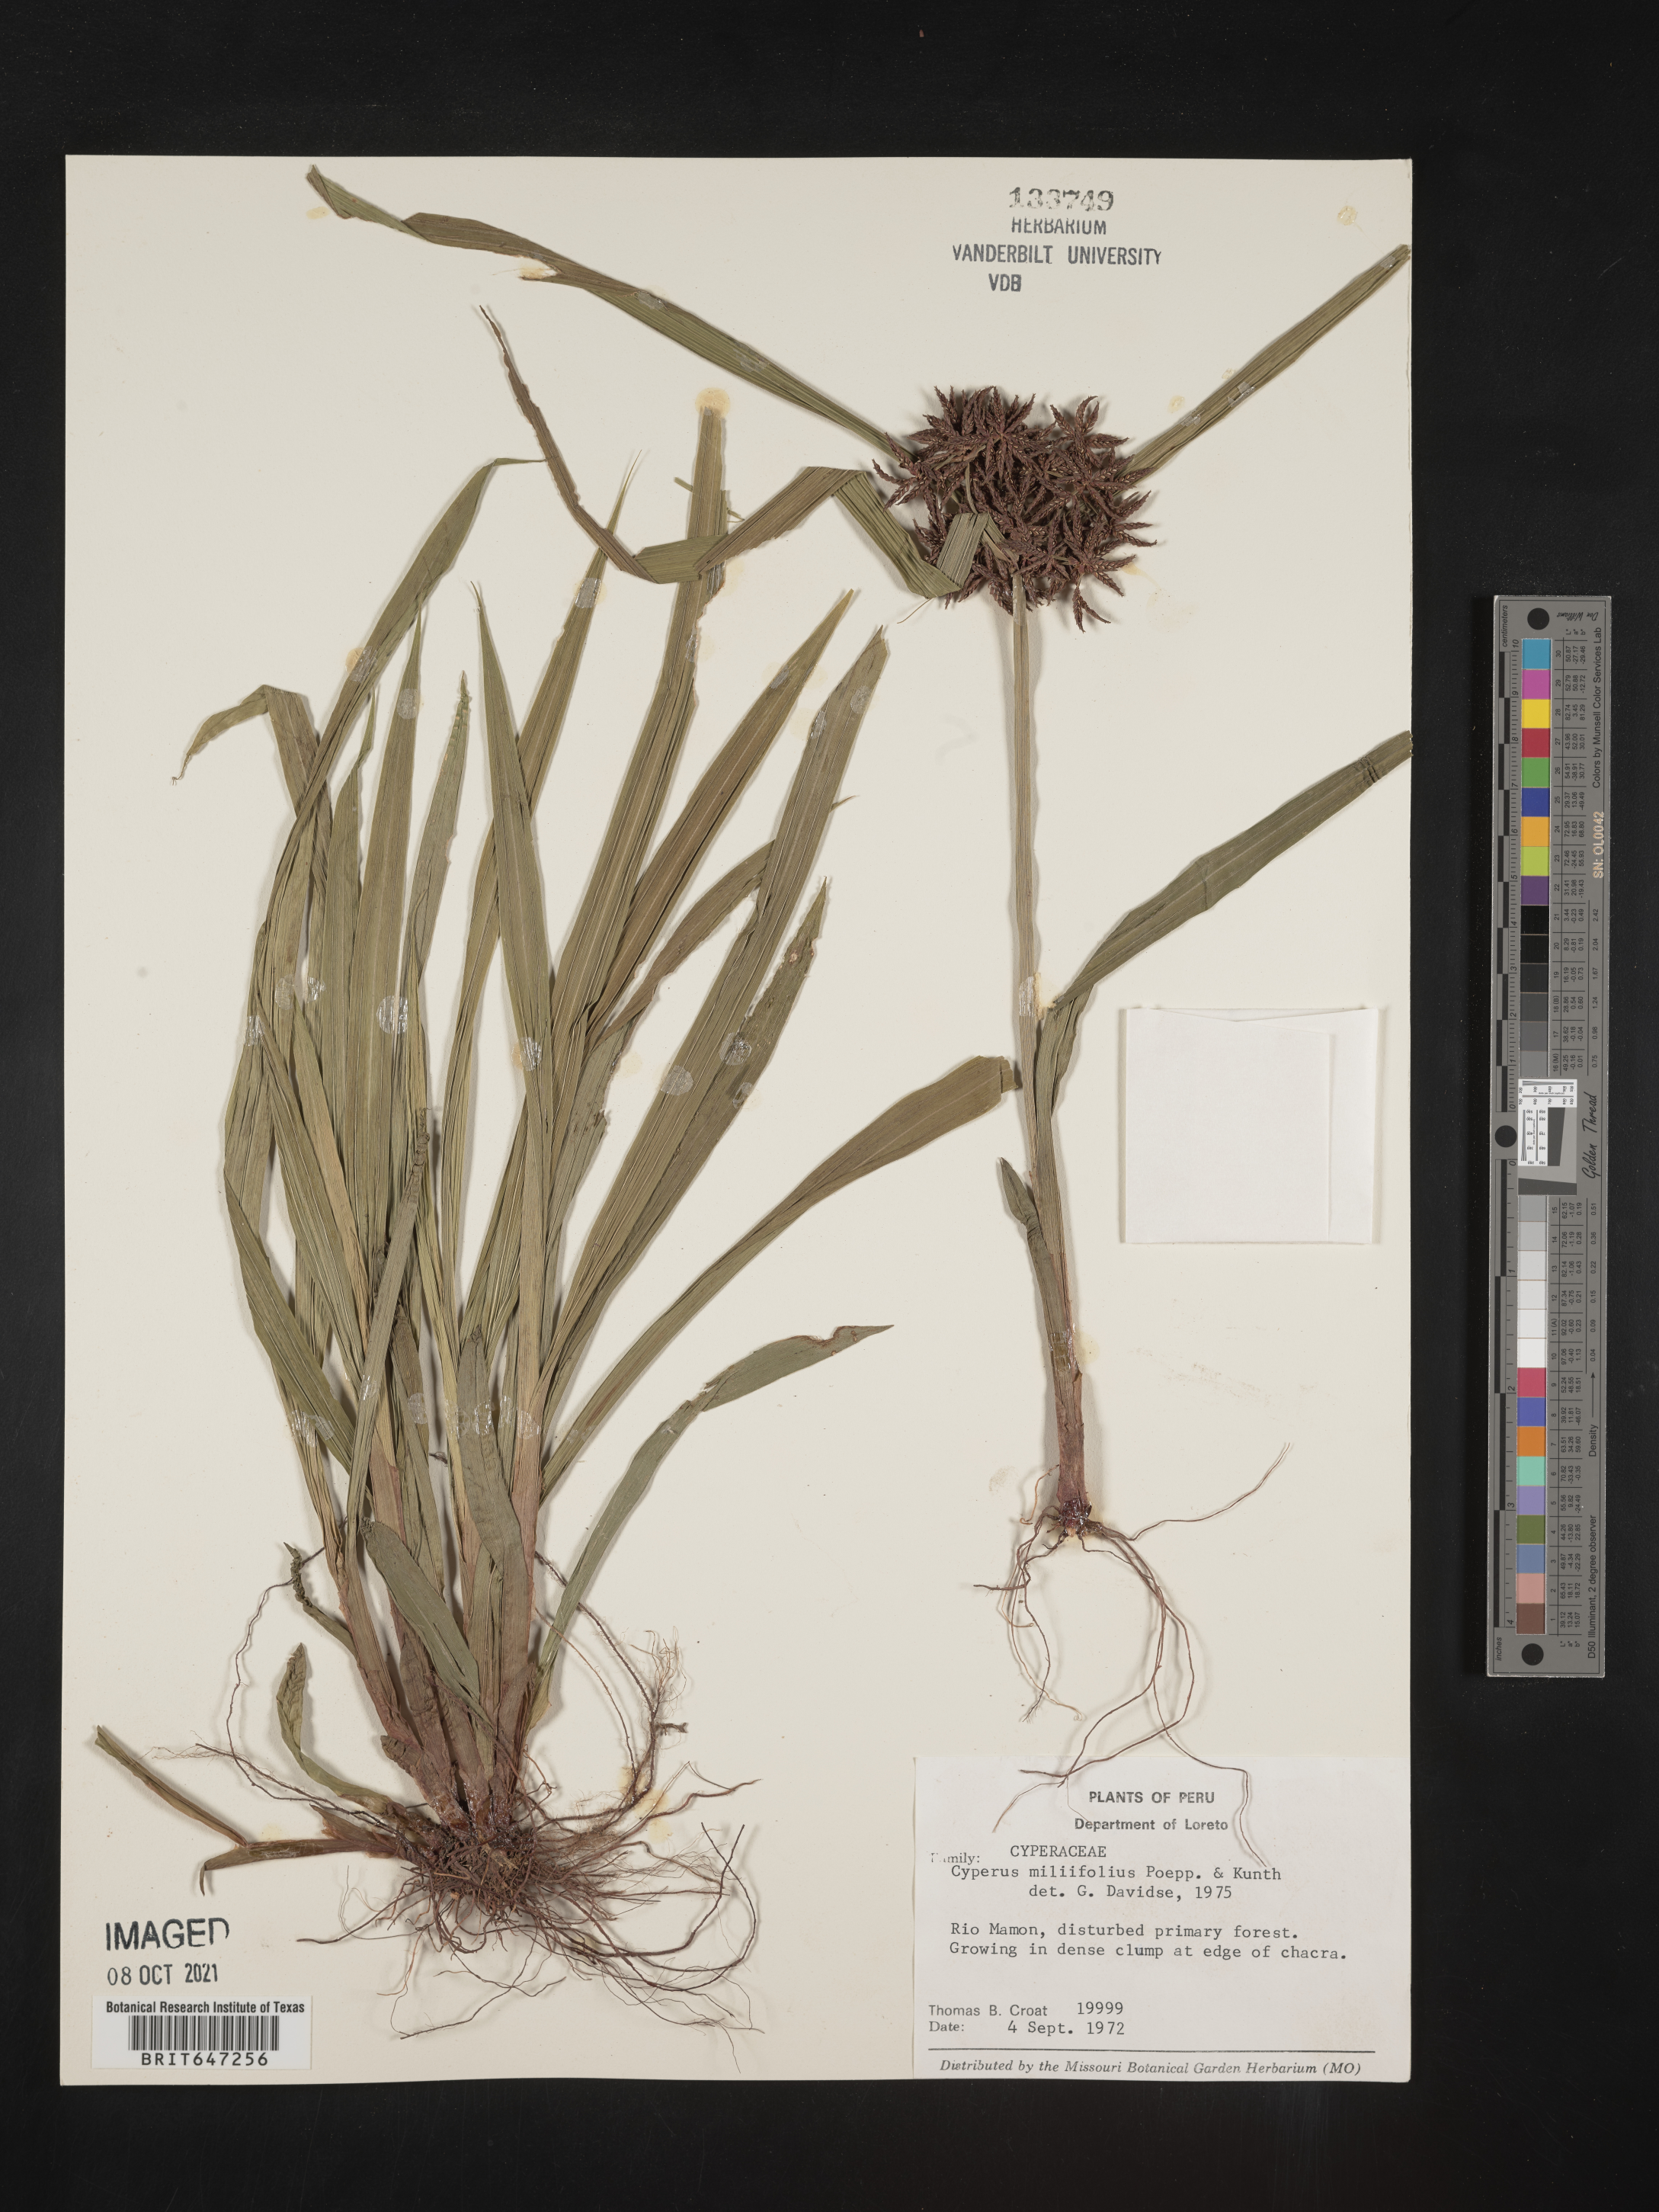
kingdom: Plantae
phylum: Tracheophyta
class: Liliopsida
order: Poales
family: Cyperaceae
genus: Cyperus
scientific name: Cyperus miliifolius
